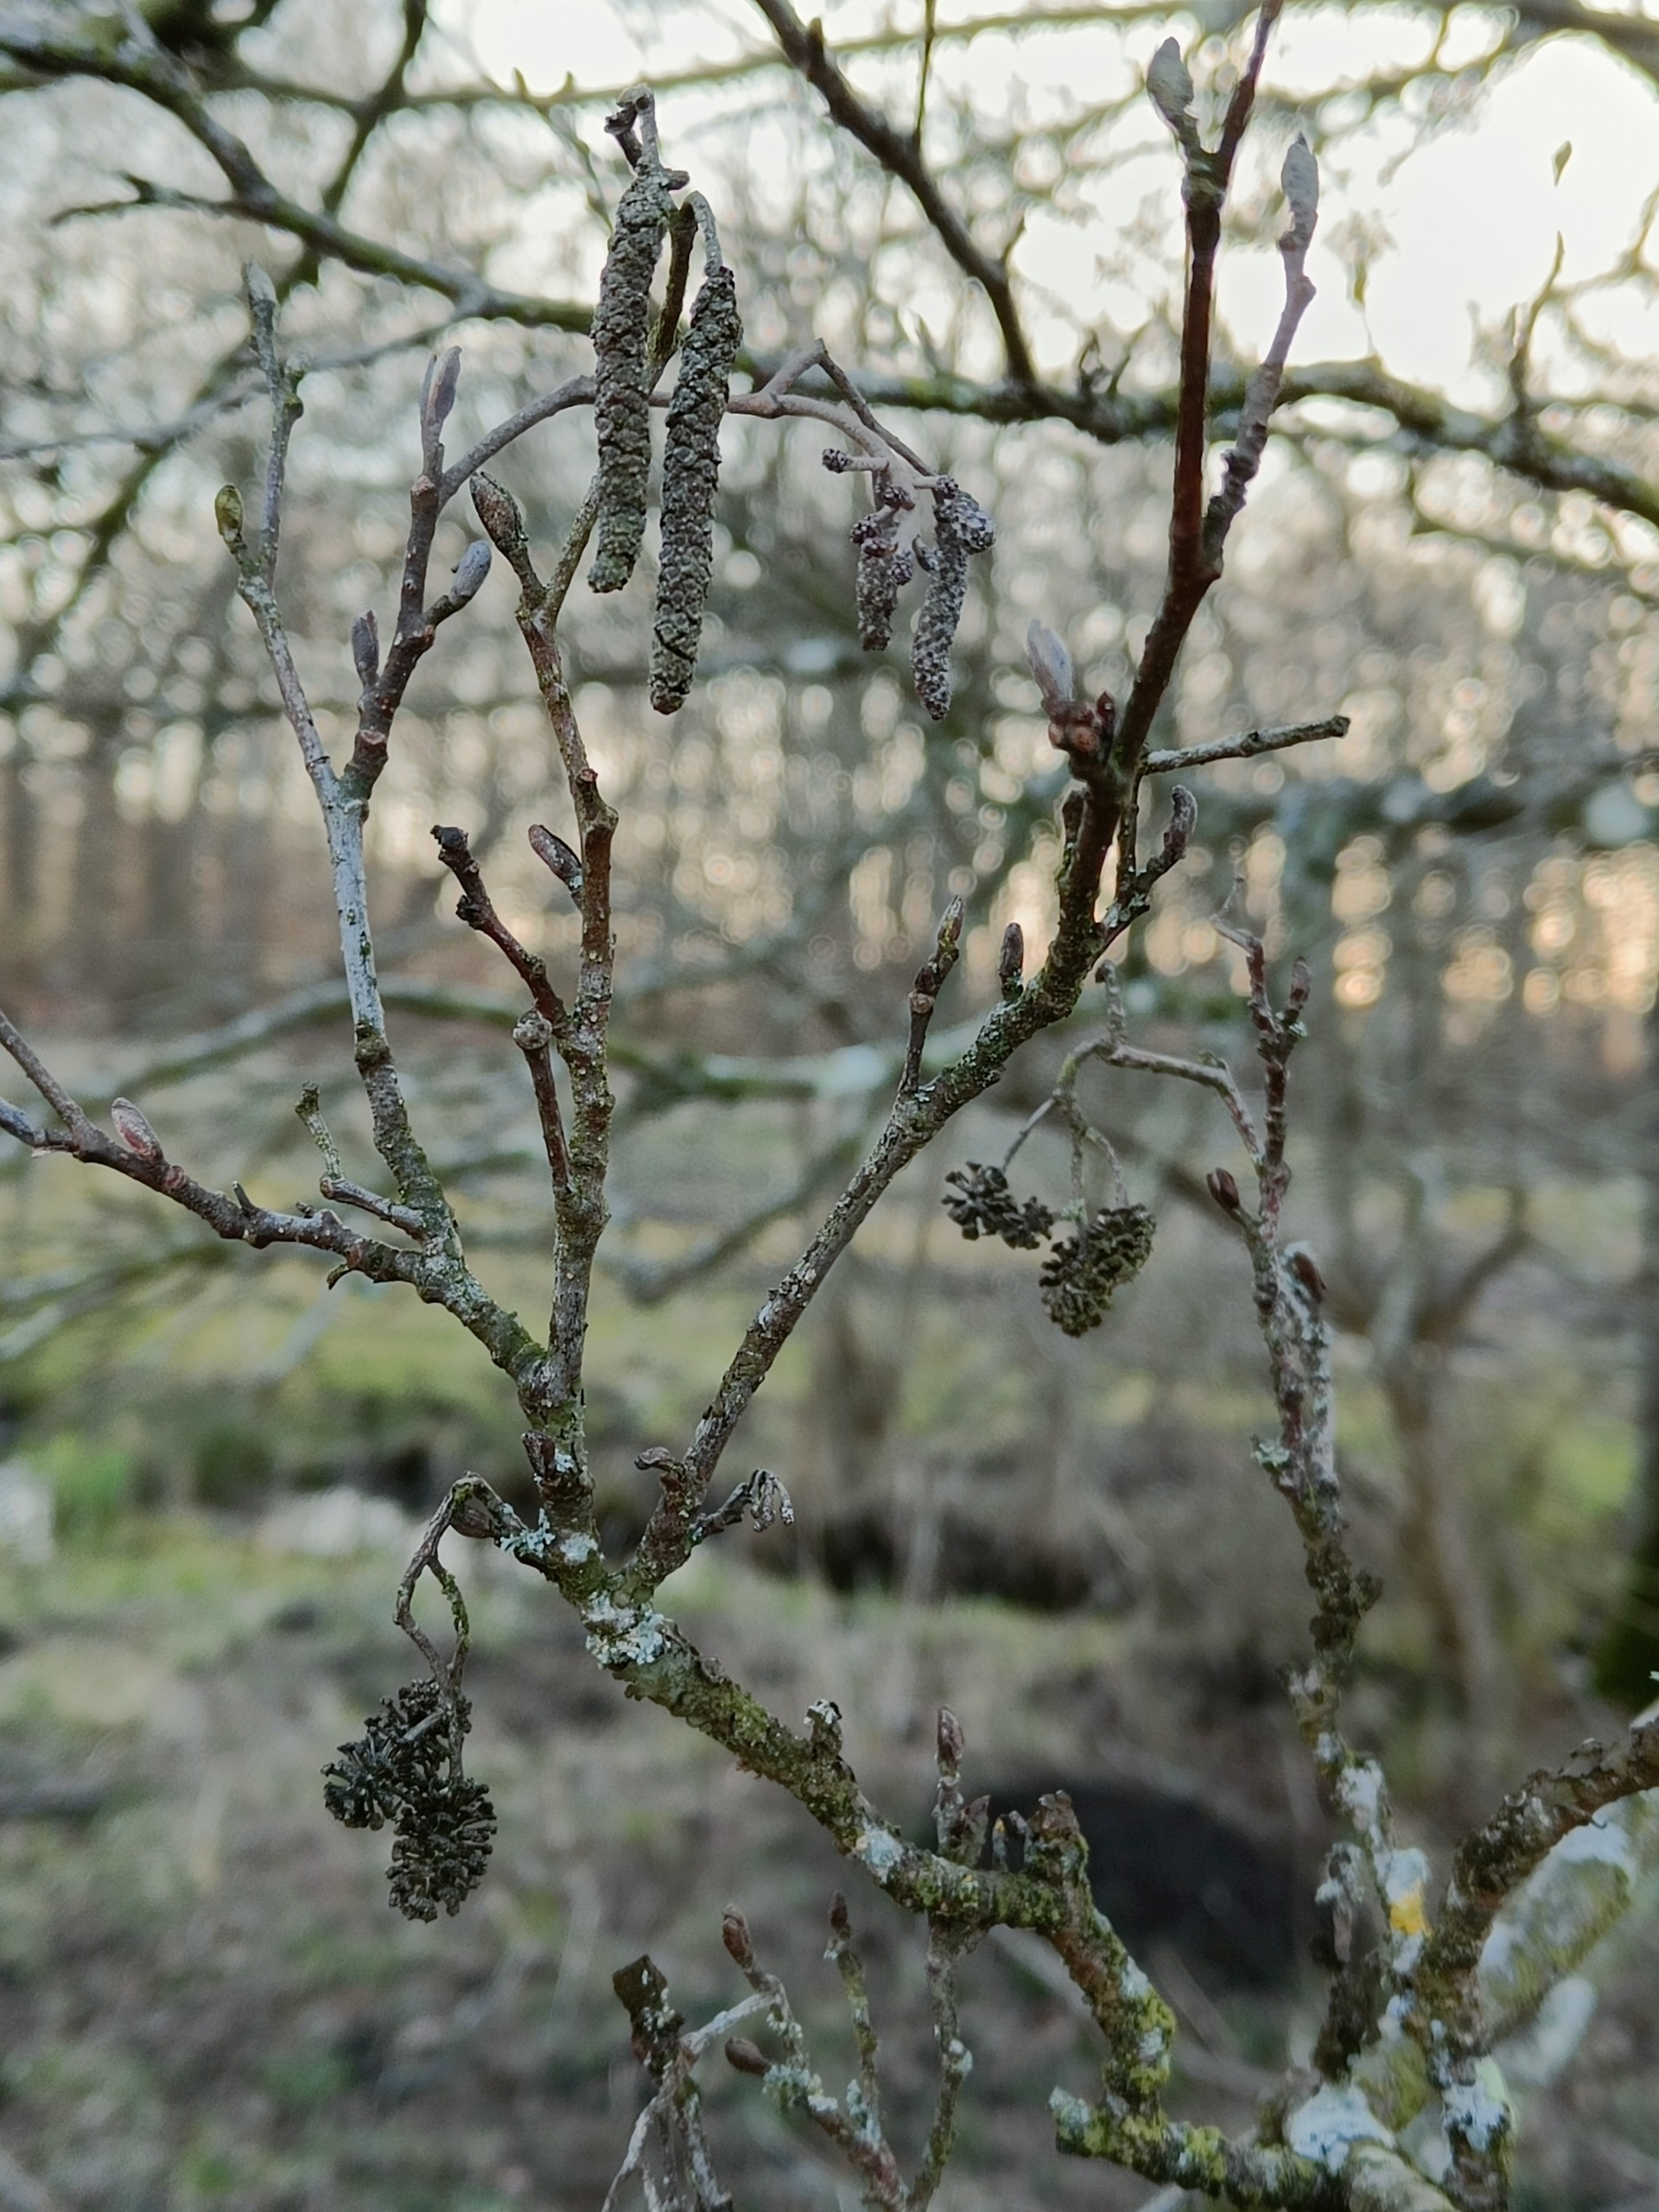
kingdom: Plantae
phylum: Tracheophyta
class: Magnoliopsida
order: Fagales
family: Betulaceae
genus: Alnus
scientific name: Alnus glutinosa
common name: Rød-el
